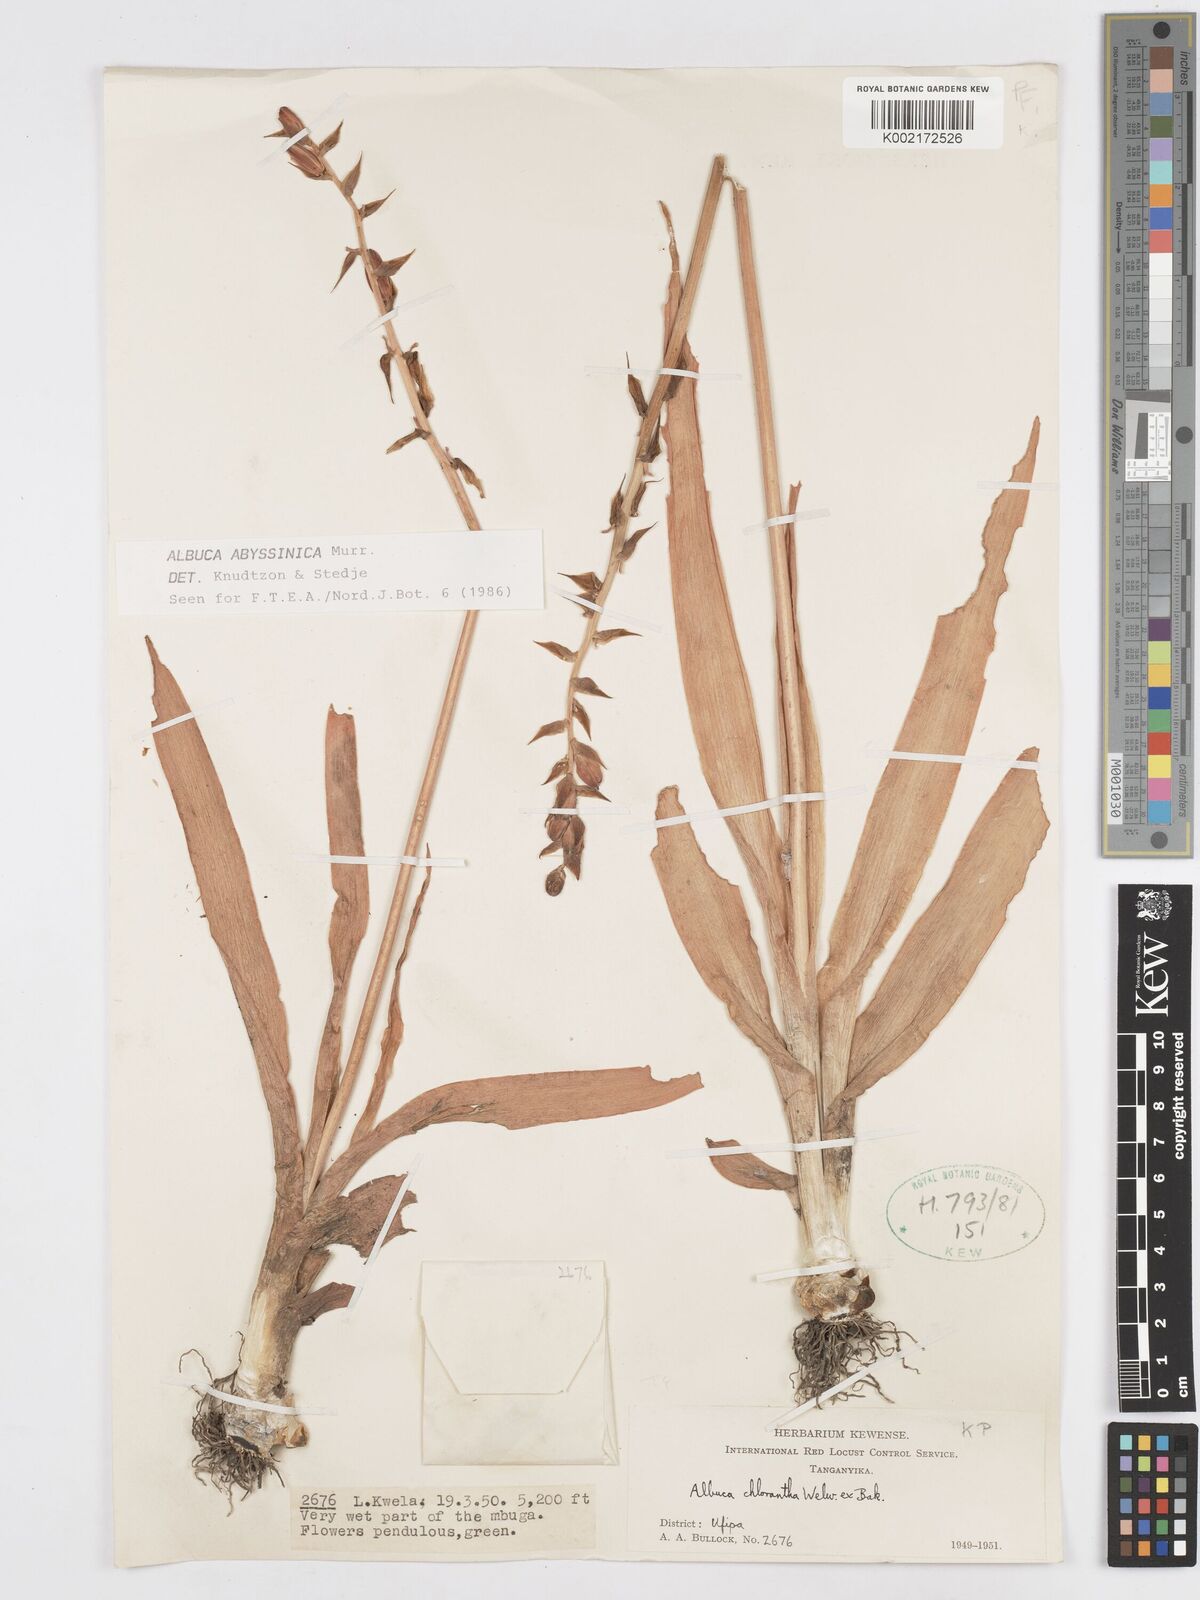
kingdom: Plantae
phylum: Tracheophyta
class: Liliopsida
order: Asparagales
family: Asparagaceae
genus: Albuca
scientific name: Albuca abyssinica
